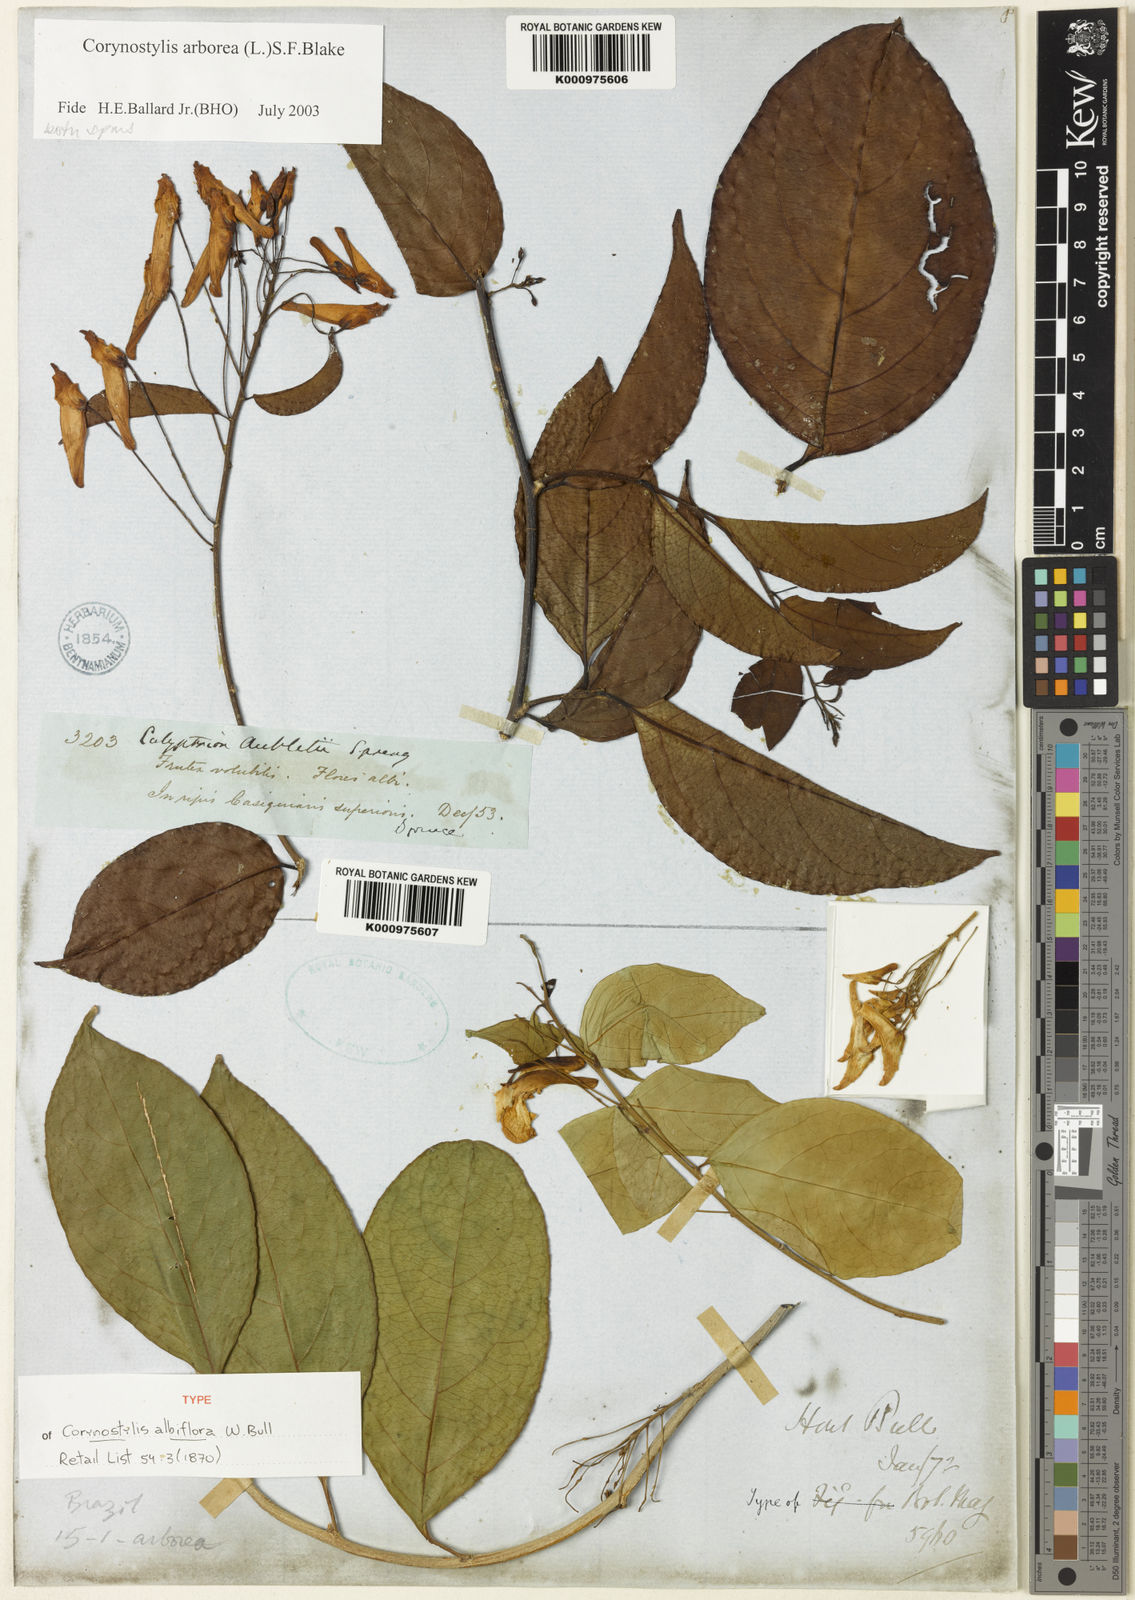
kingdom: Plantae
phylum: Tracheophyta
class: Magnoliopsida
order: Malpighiales
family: Violaceae
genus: Calyptrion
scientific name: Calyptrion arboreum
